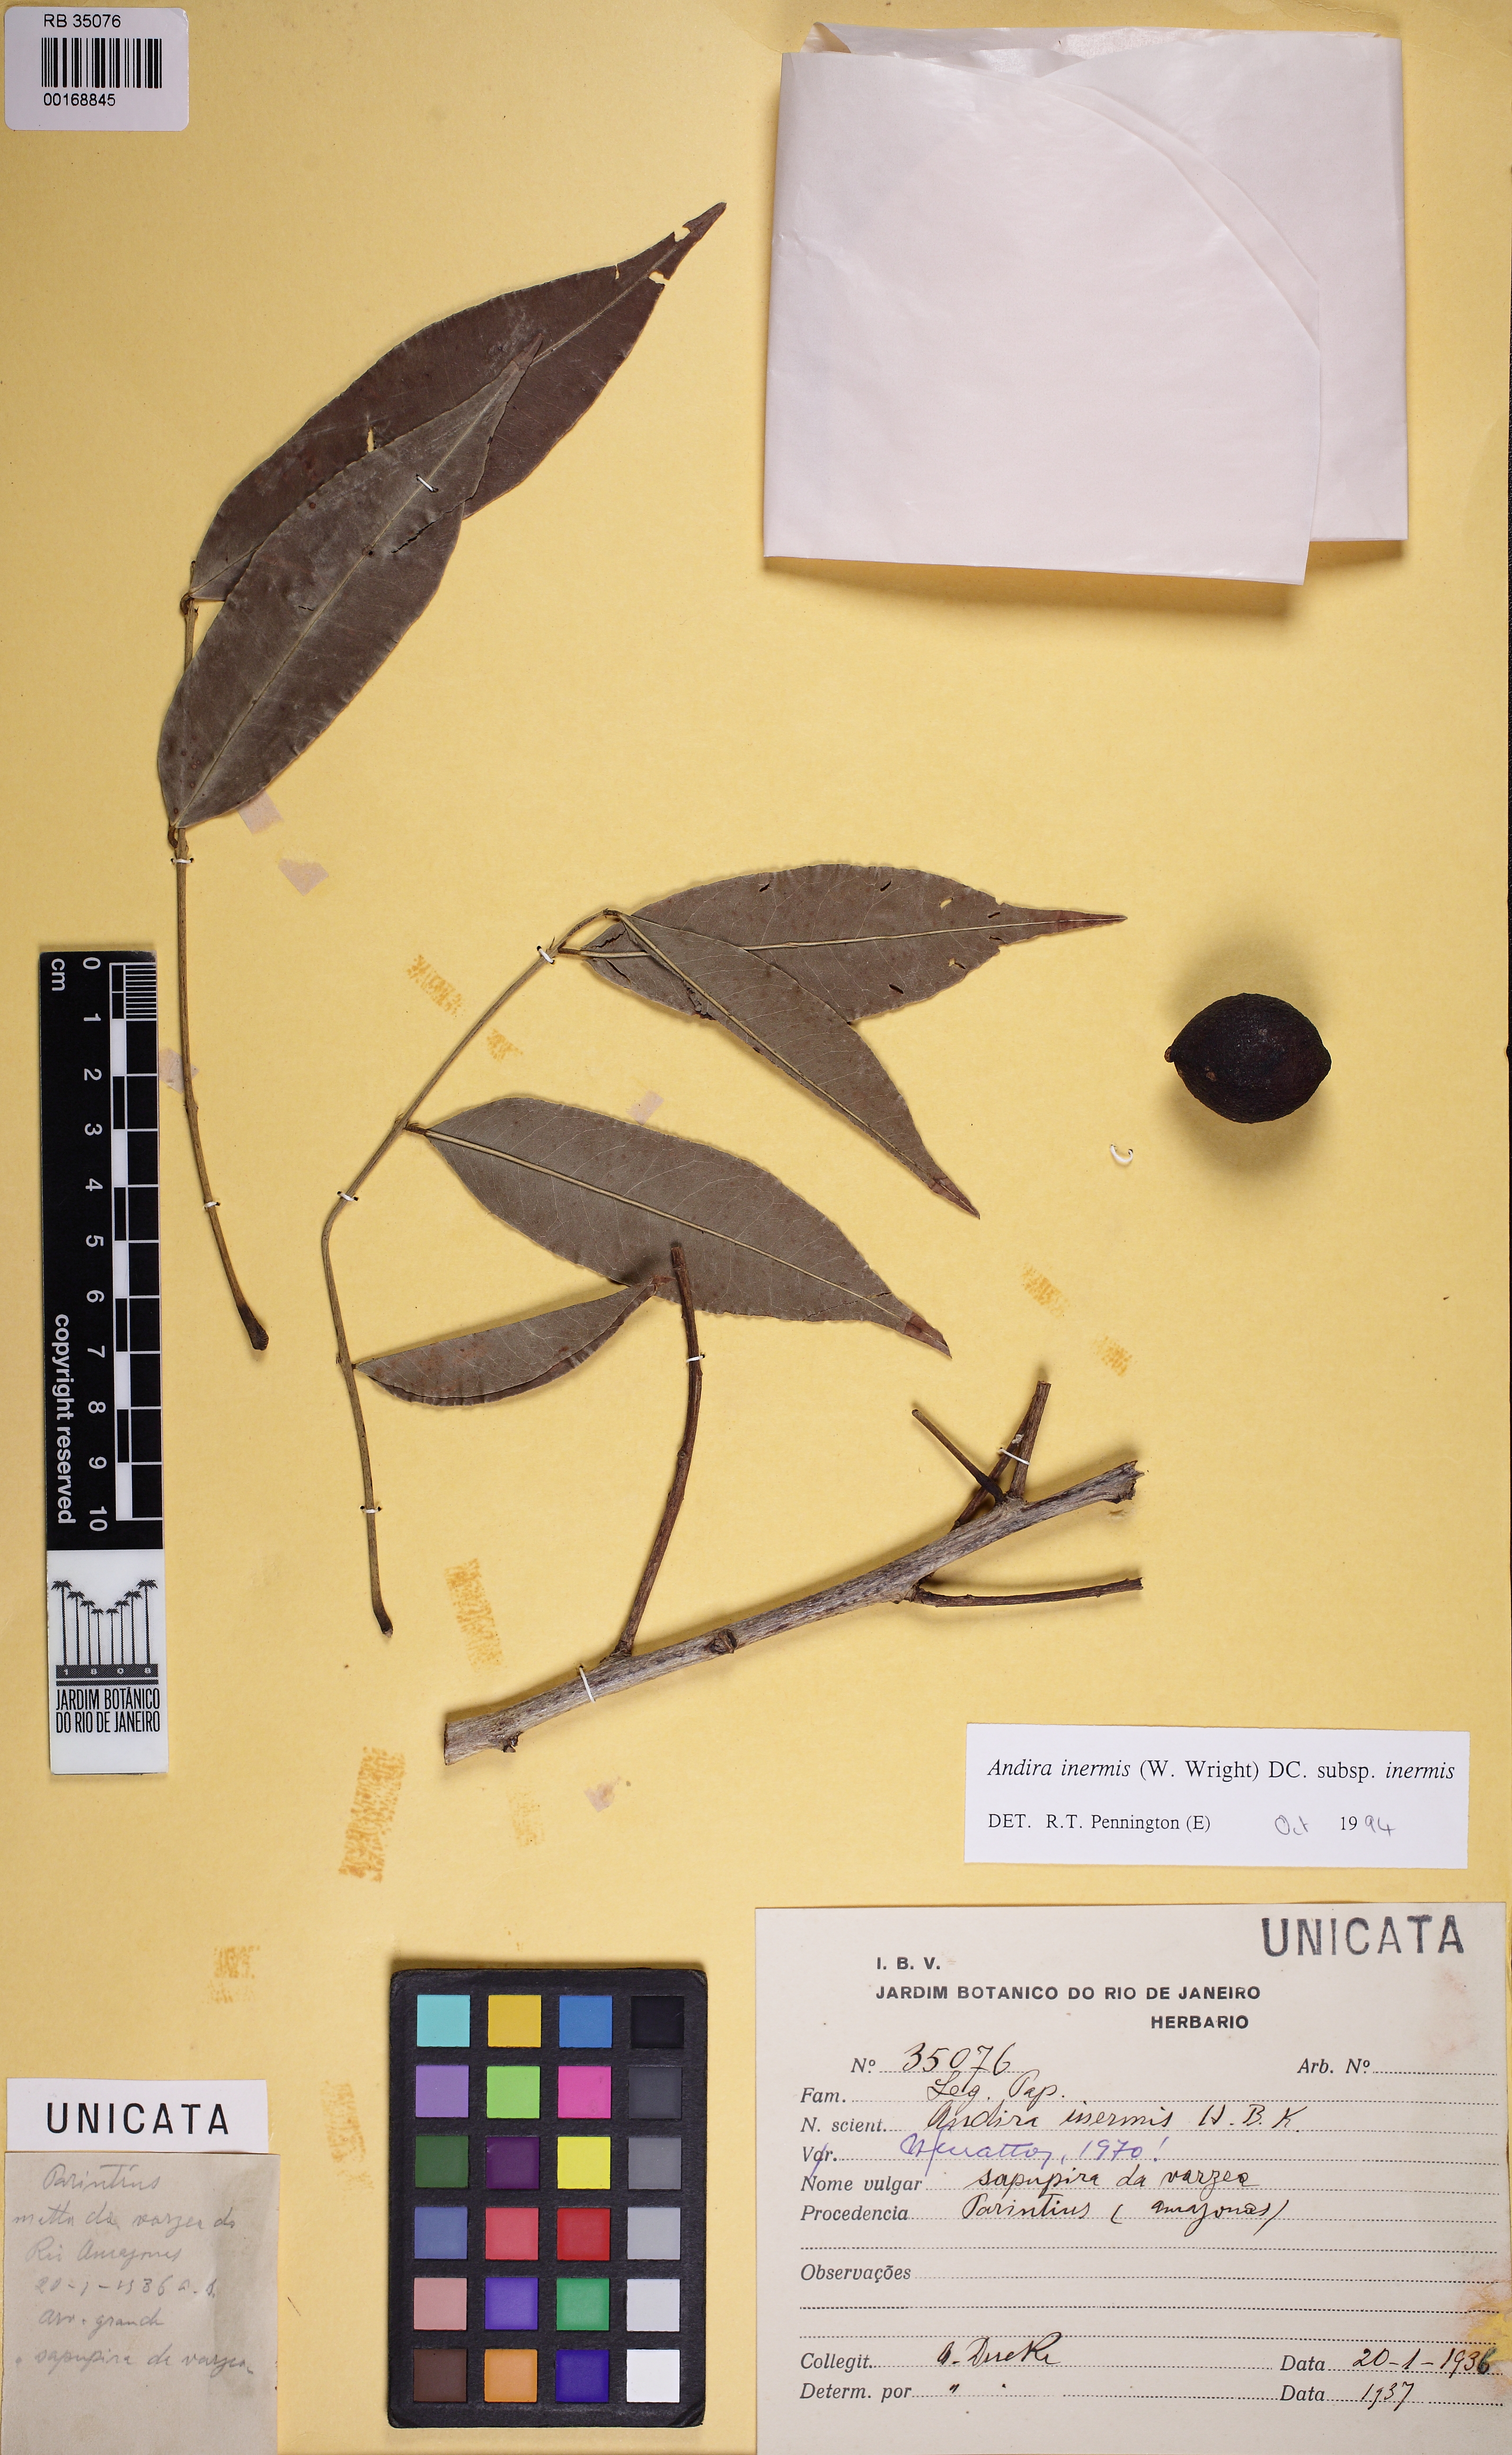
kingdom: Plantae
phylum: Tracheophyta
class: Magnoliopsida
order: Fabales
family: Fabaceae
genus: Andira
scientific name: Andira inermis
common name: Angelin
